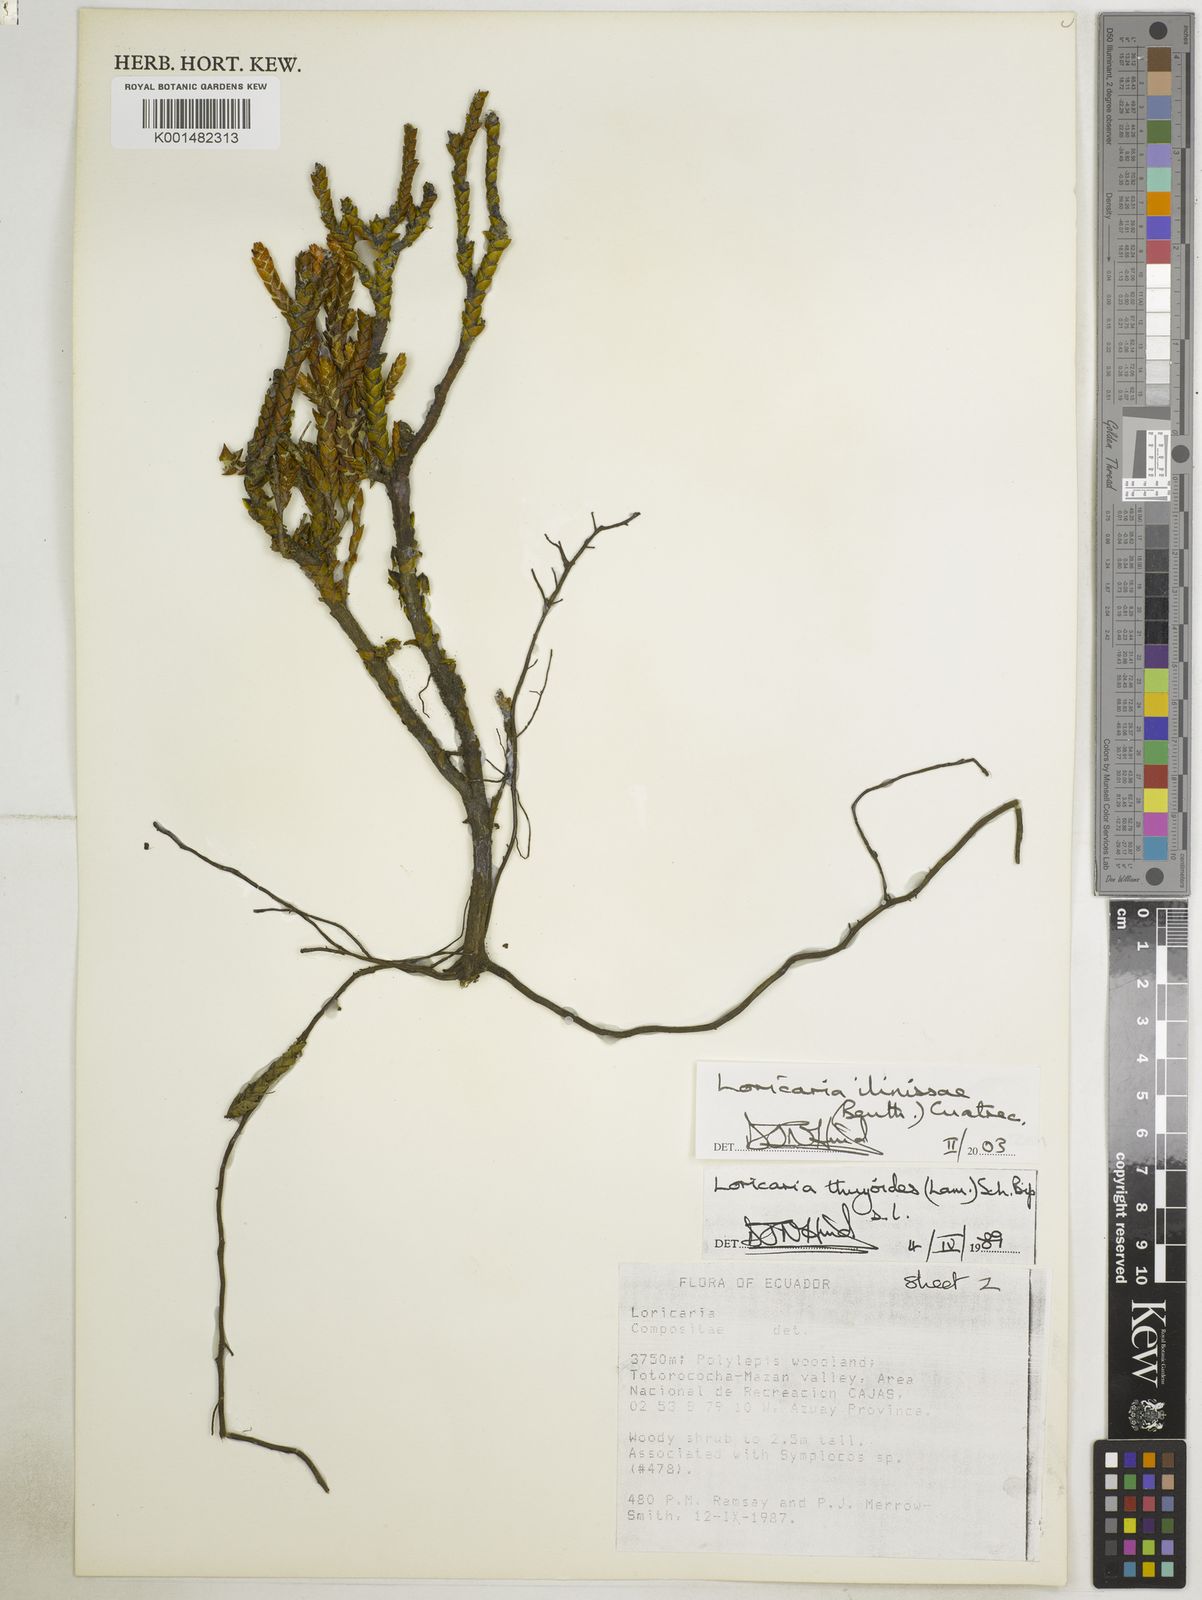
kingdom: Plantae
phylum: Tracheophyta
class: Magnoliopsida
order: Asterales
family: Asteraceae
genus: Andicolea
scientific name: Andicolea ilinissae
